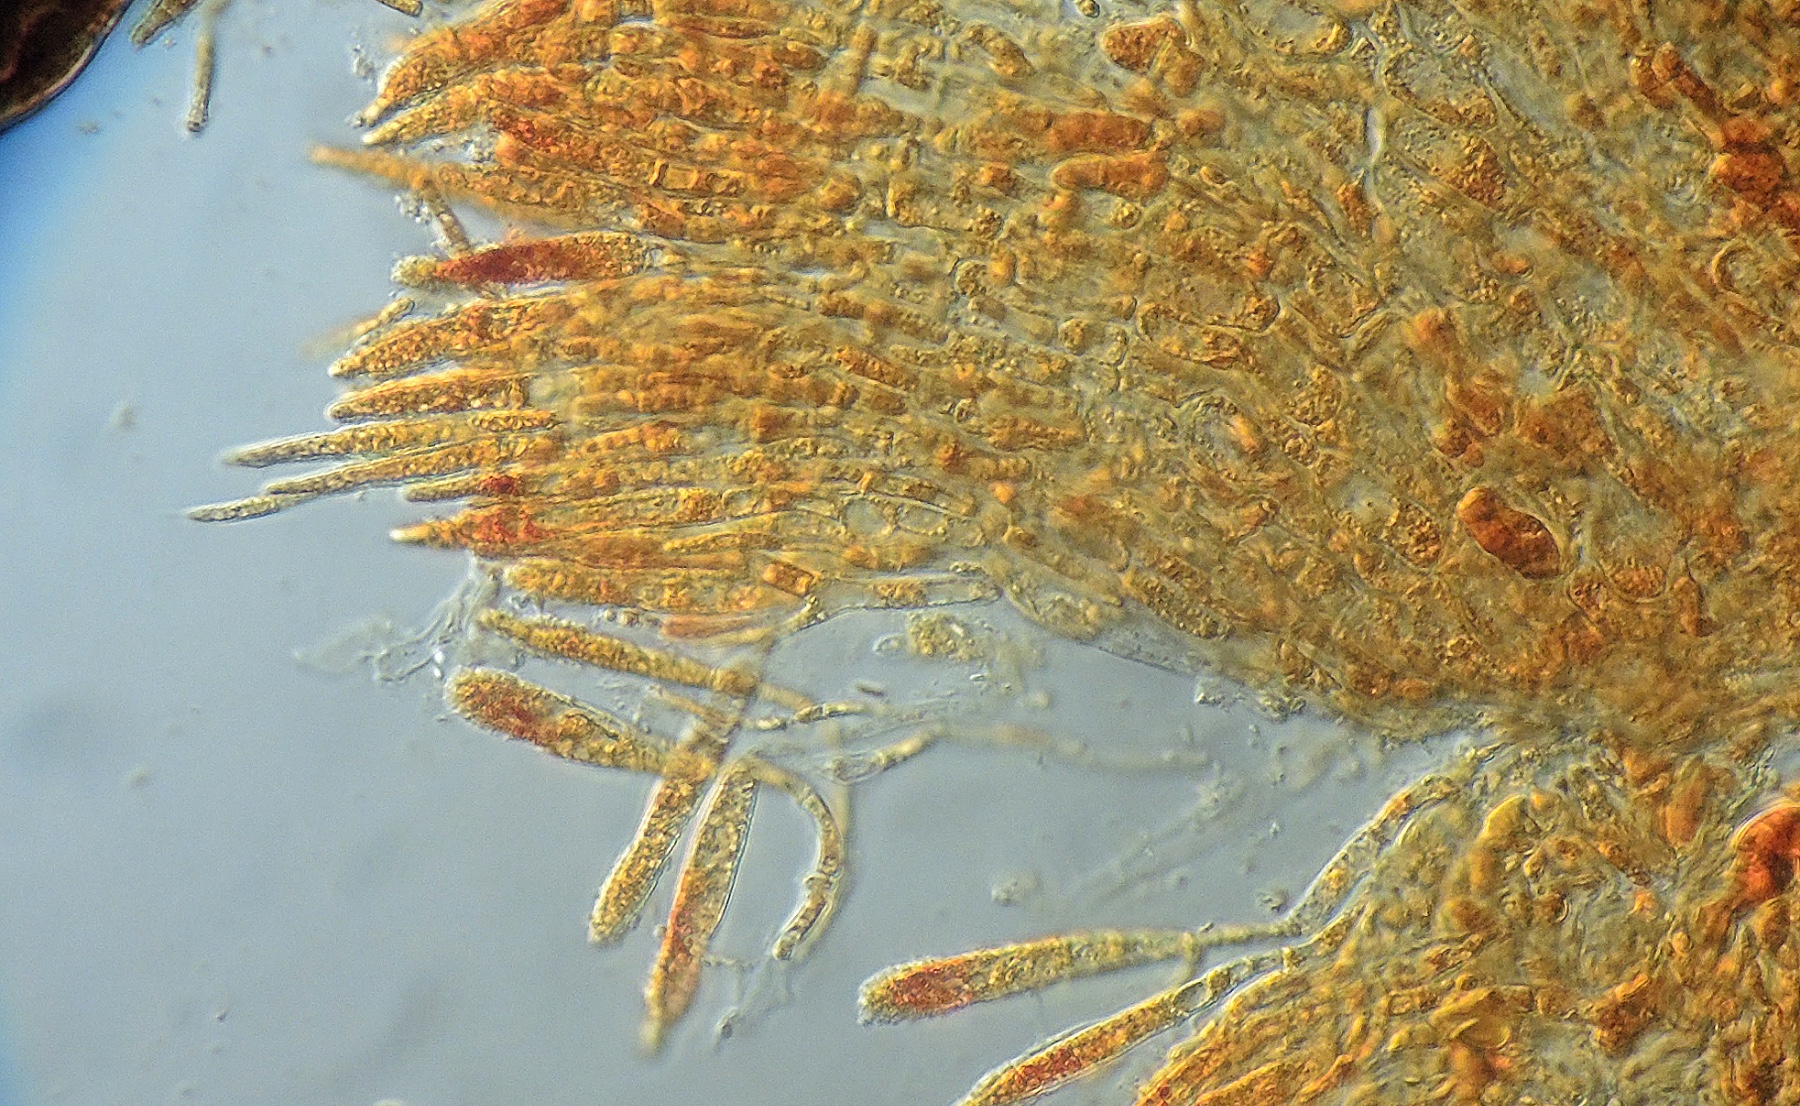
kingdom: Fungi
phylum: Ascomycota
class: Leotiomycetes
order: Helotiales
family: Dermateaceae
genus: Coronellaria
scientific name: Coronellaria
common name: pelsskive
